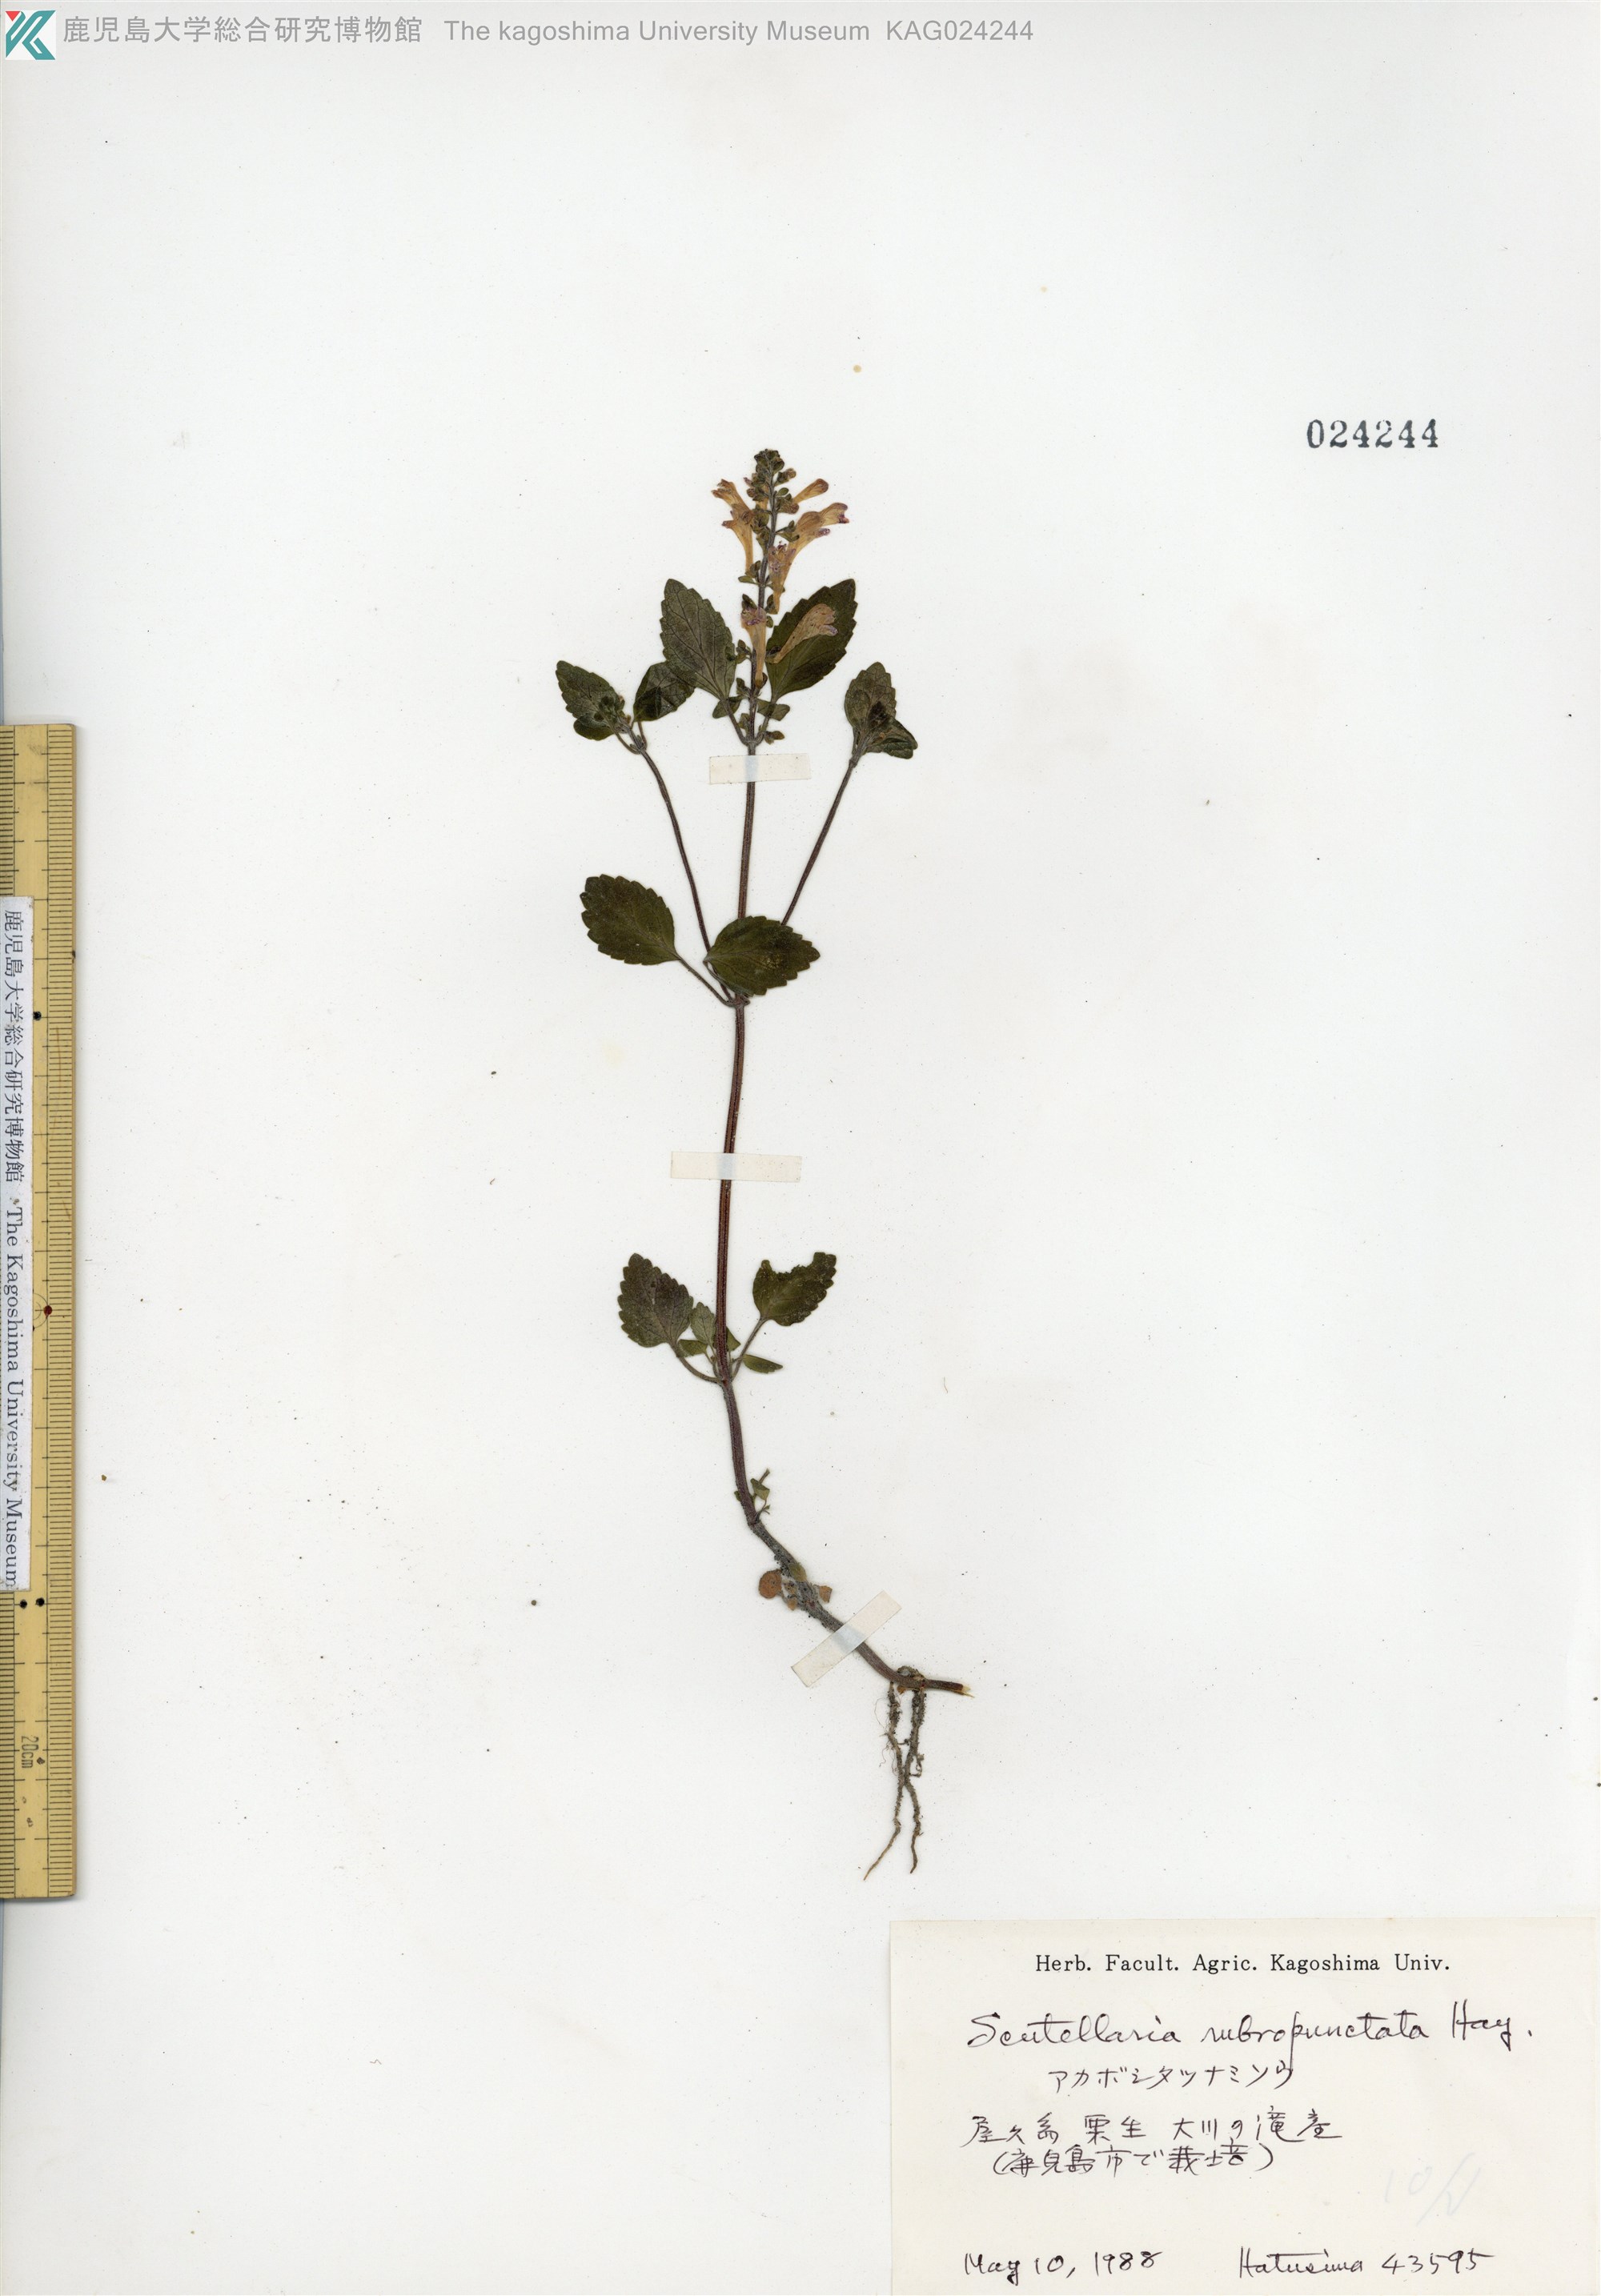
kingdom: Plantae
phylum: Tracheophyta
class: Magnoliopsida
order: Lamiales
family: Lamiaceae
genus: Scutellaria
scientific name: Scutellaria rubropunctata
